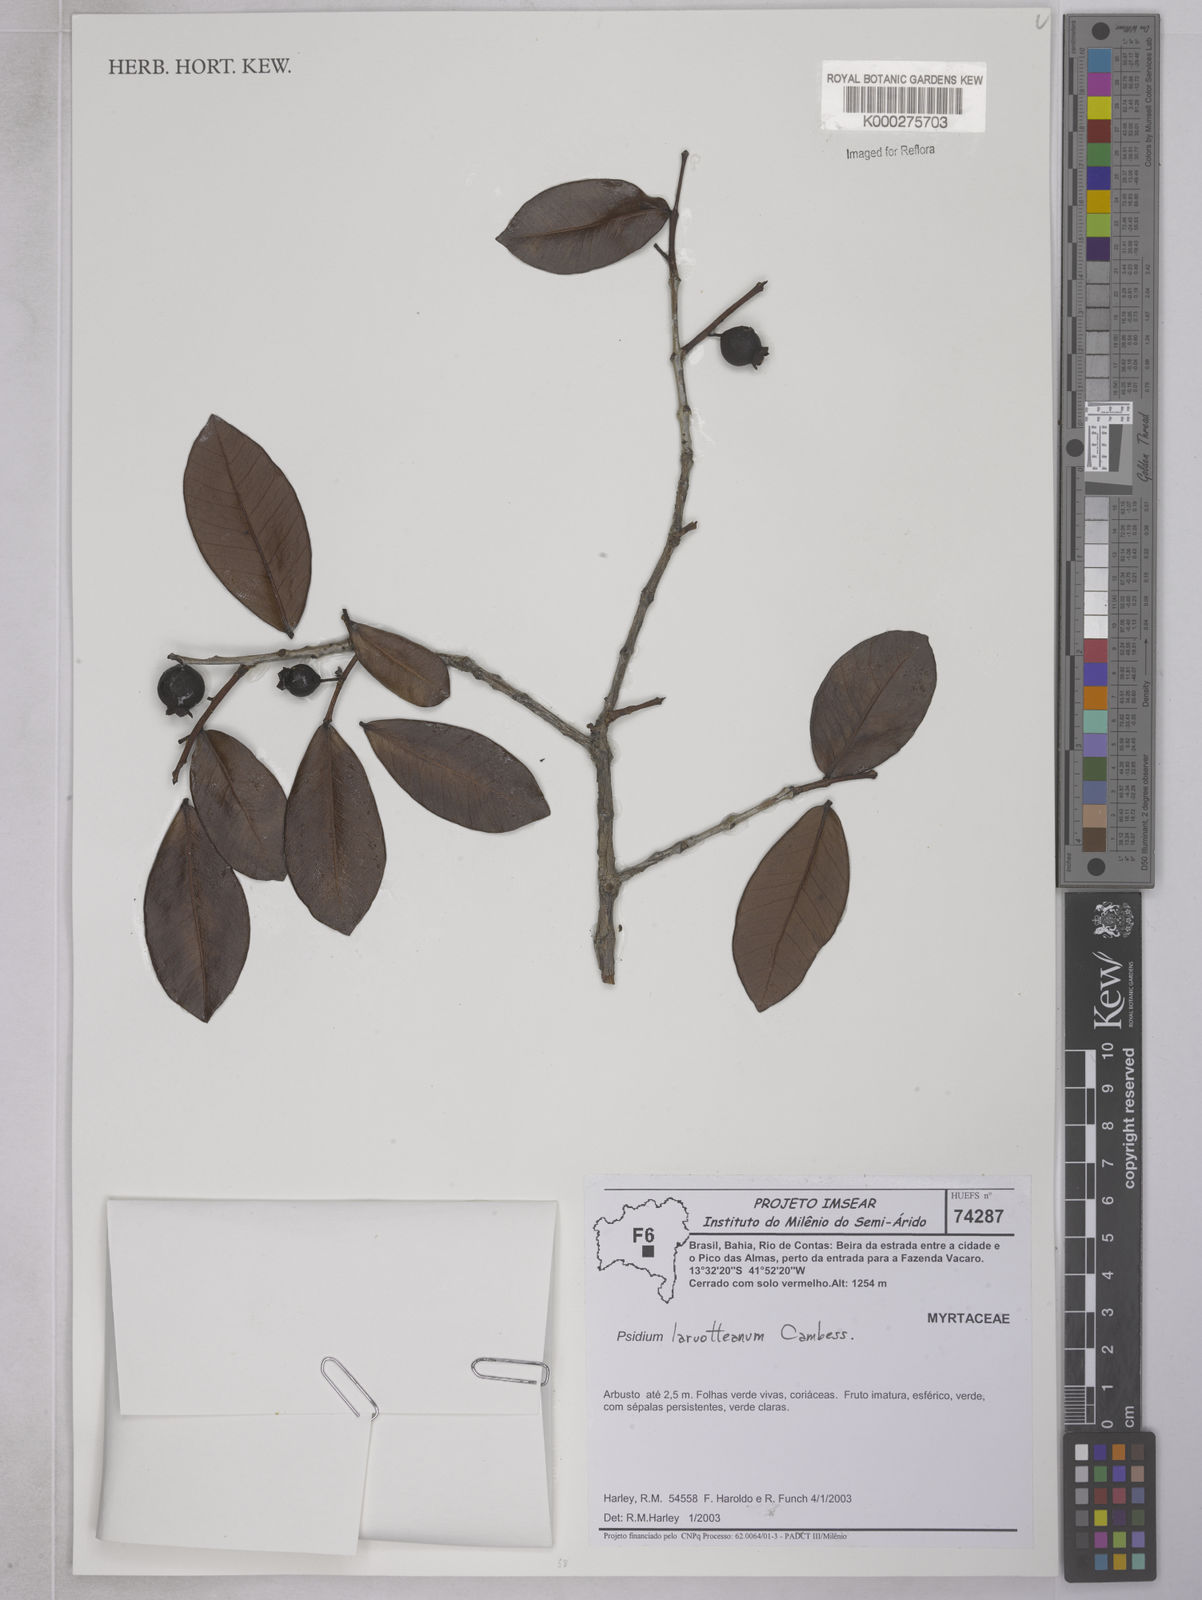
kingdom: Plantae
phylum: Tracheophyta
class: Magnoliopsida
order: Myrtales
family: Myrtaceae
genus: Psidium
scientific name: Psidium larueotteanum
